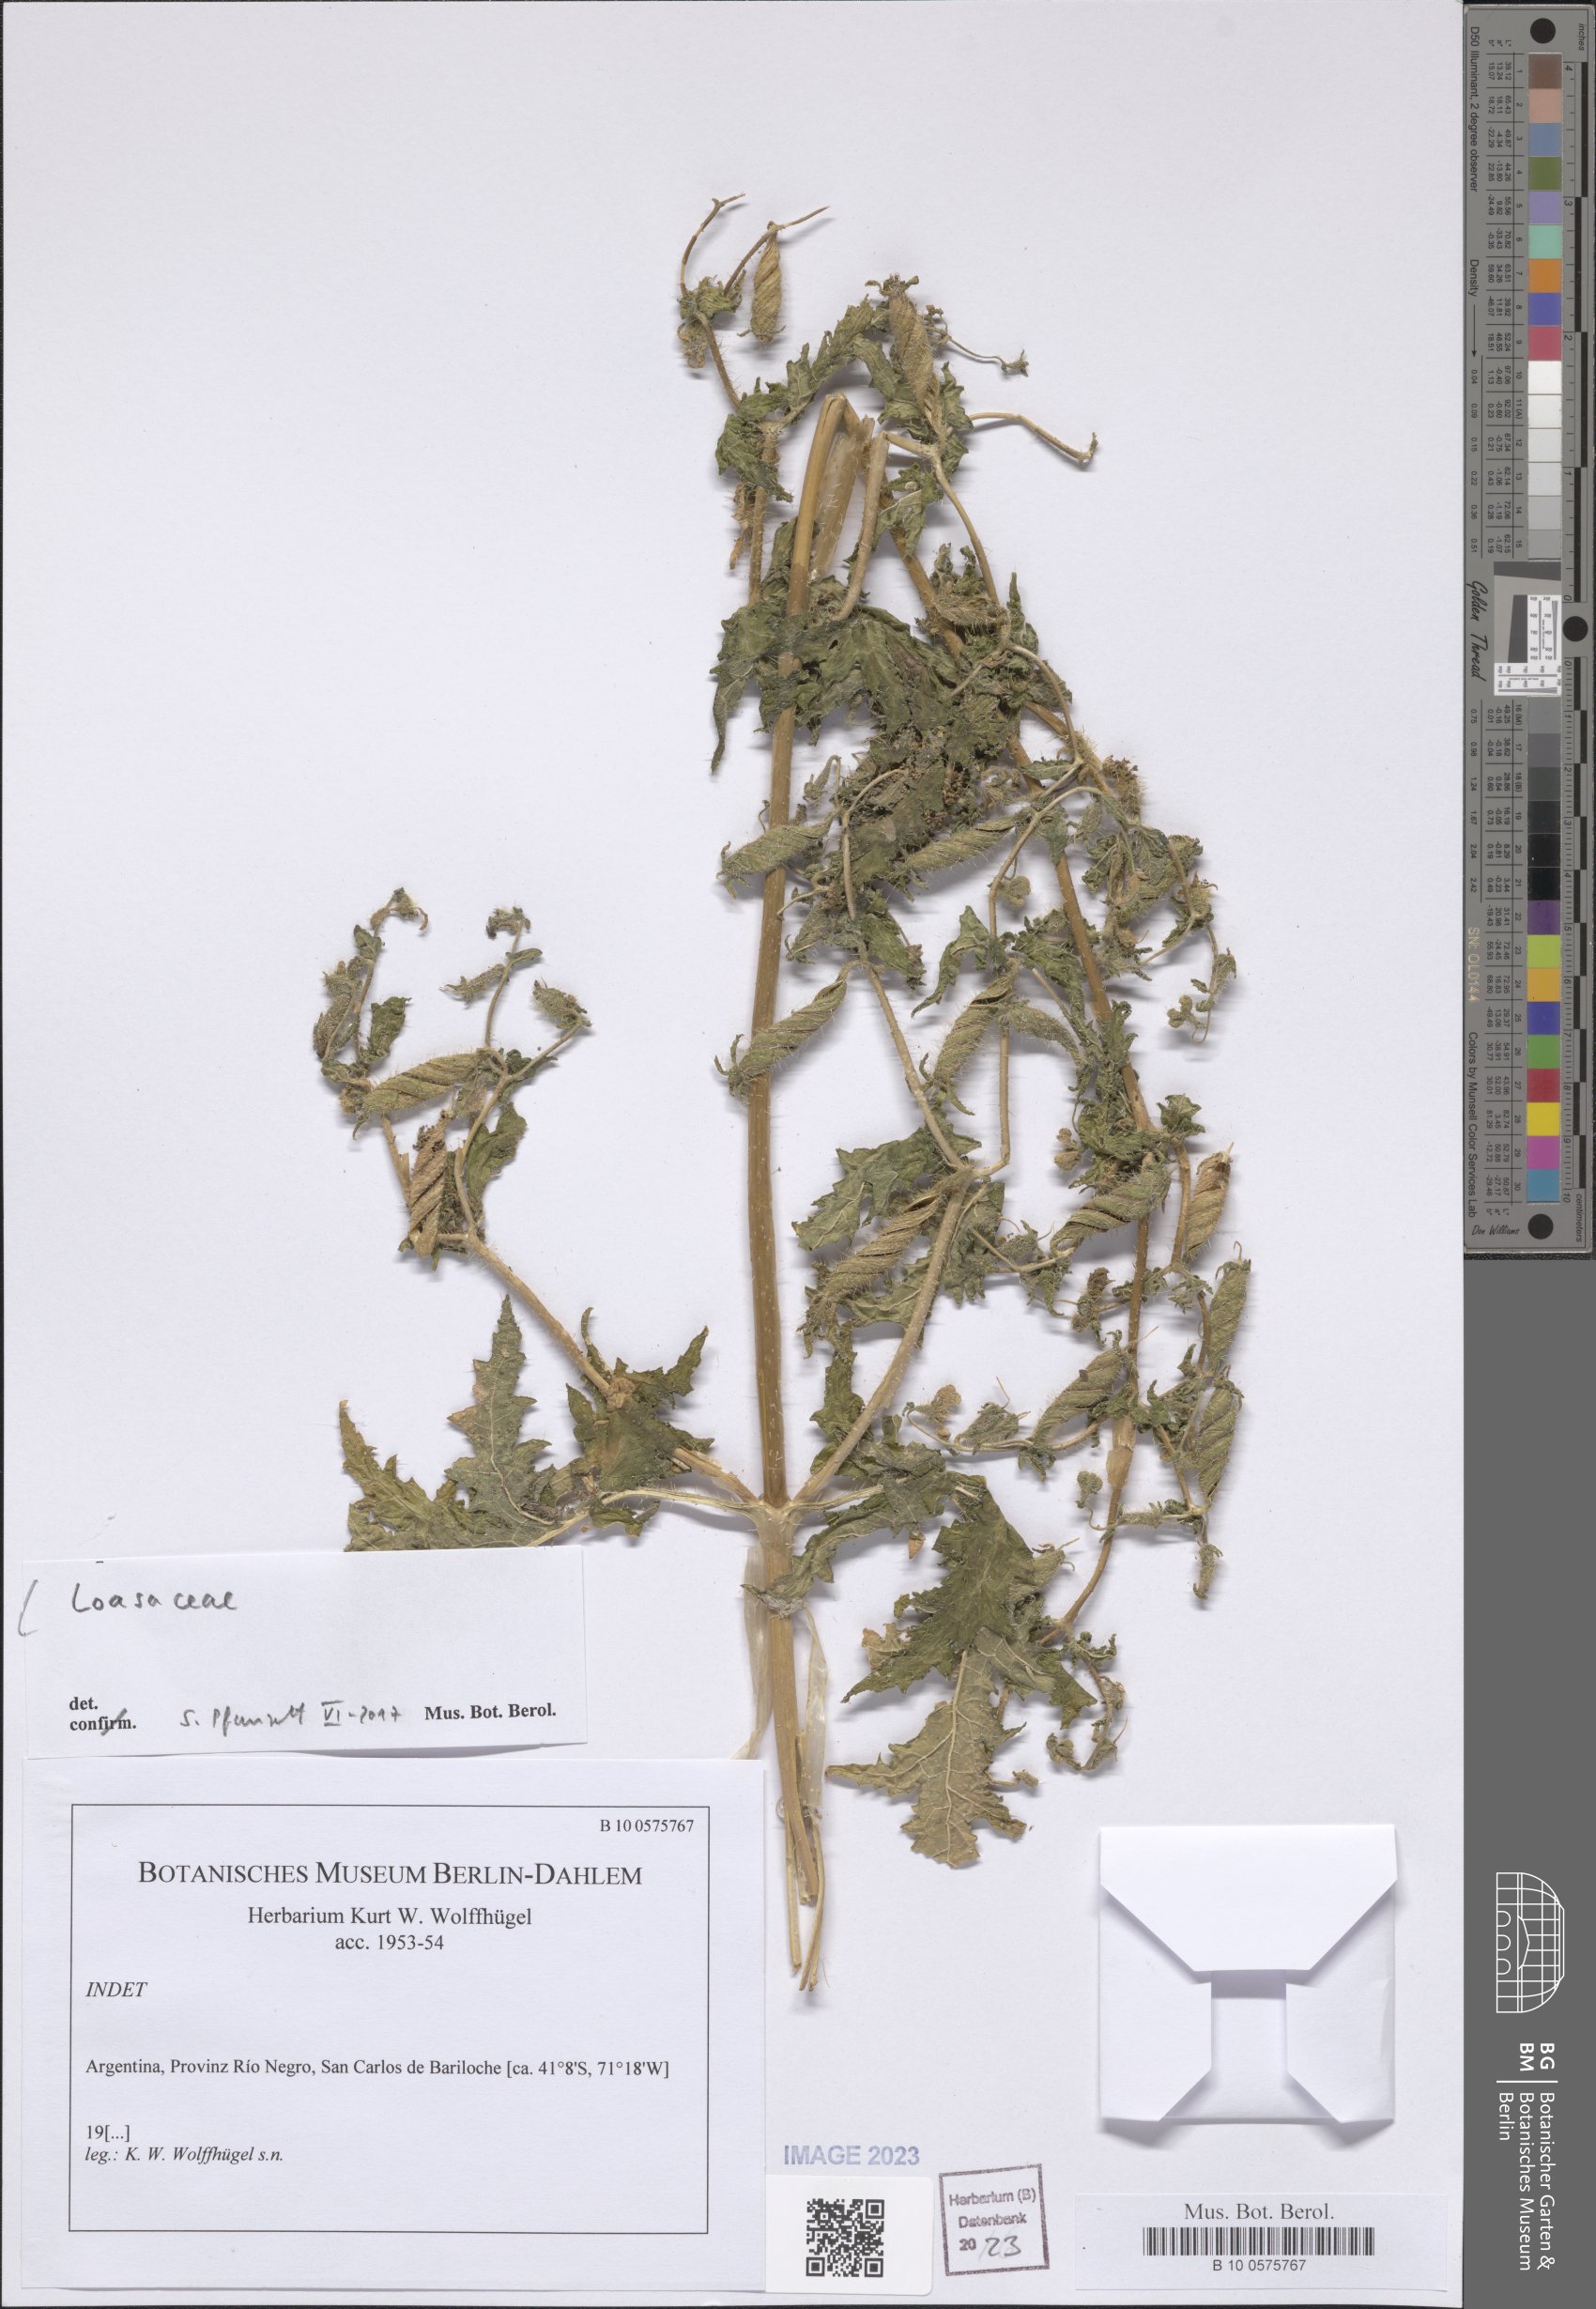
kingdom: Plantae
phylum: Tracheophyta
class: Magnoliopsida
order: Cornales
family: Loasaceae
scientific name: Loasaceae
